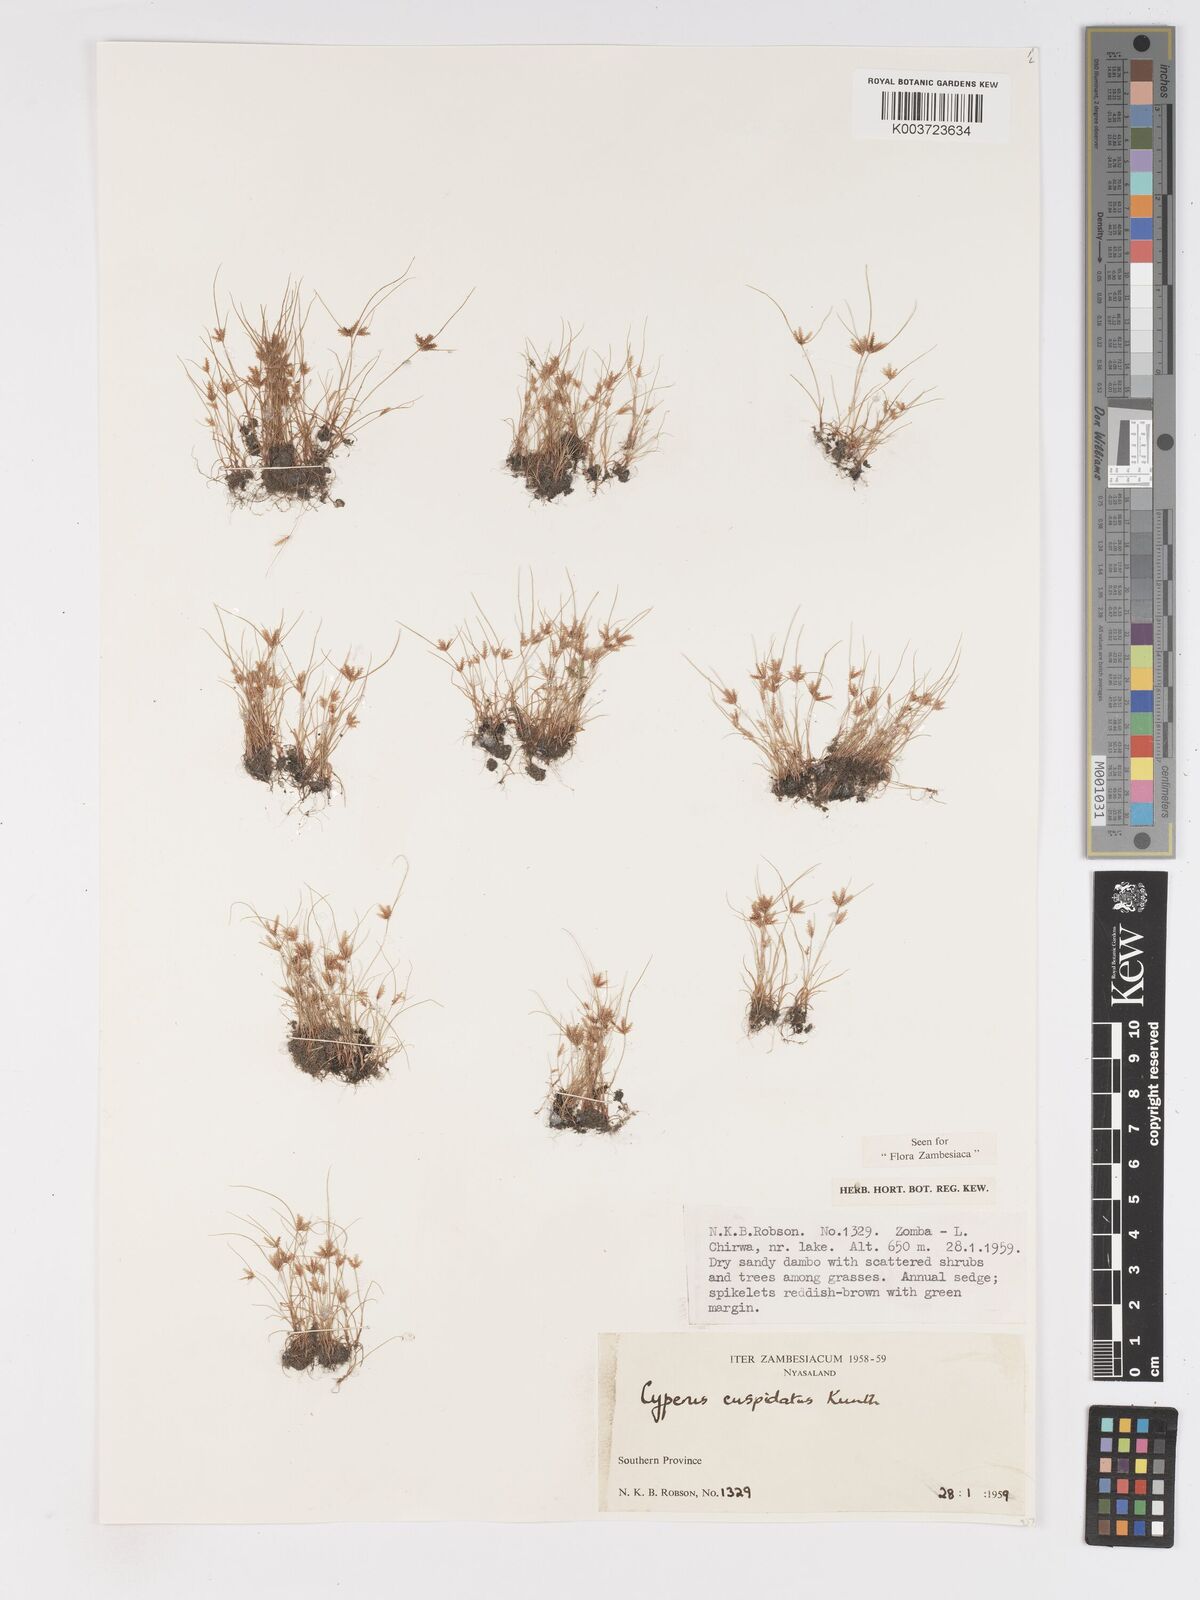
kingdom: Plantae
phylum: Tracheophyta
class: Liliopsida
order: Poales
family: Cyperaceae
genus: Cyperus
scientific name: Cyperus cuspidatus
